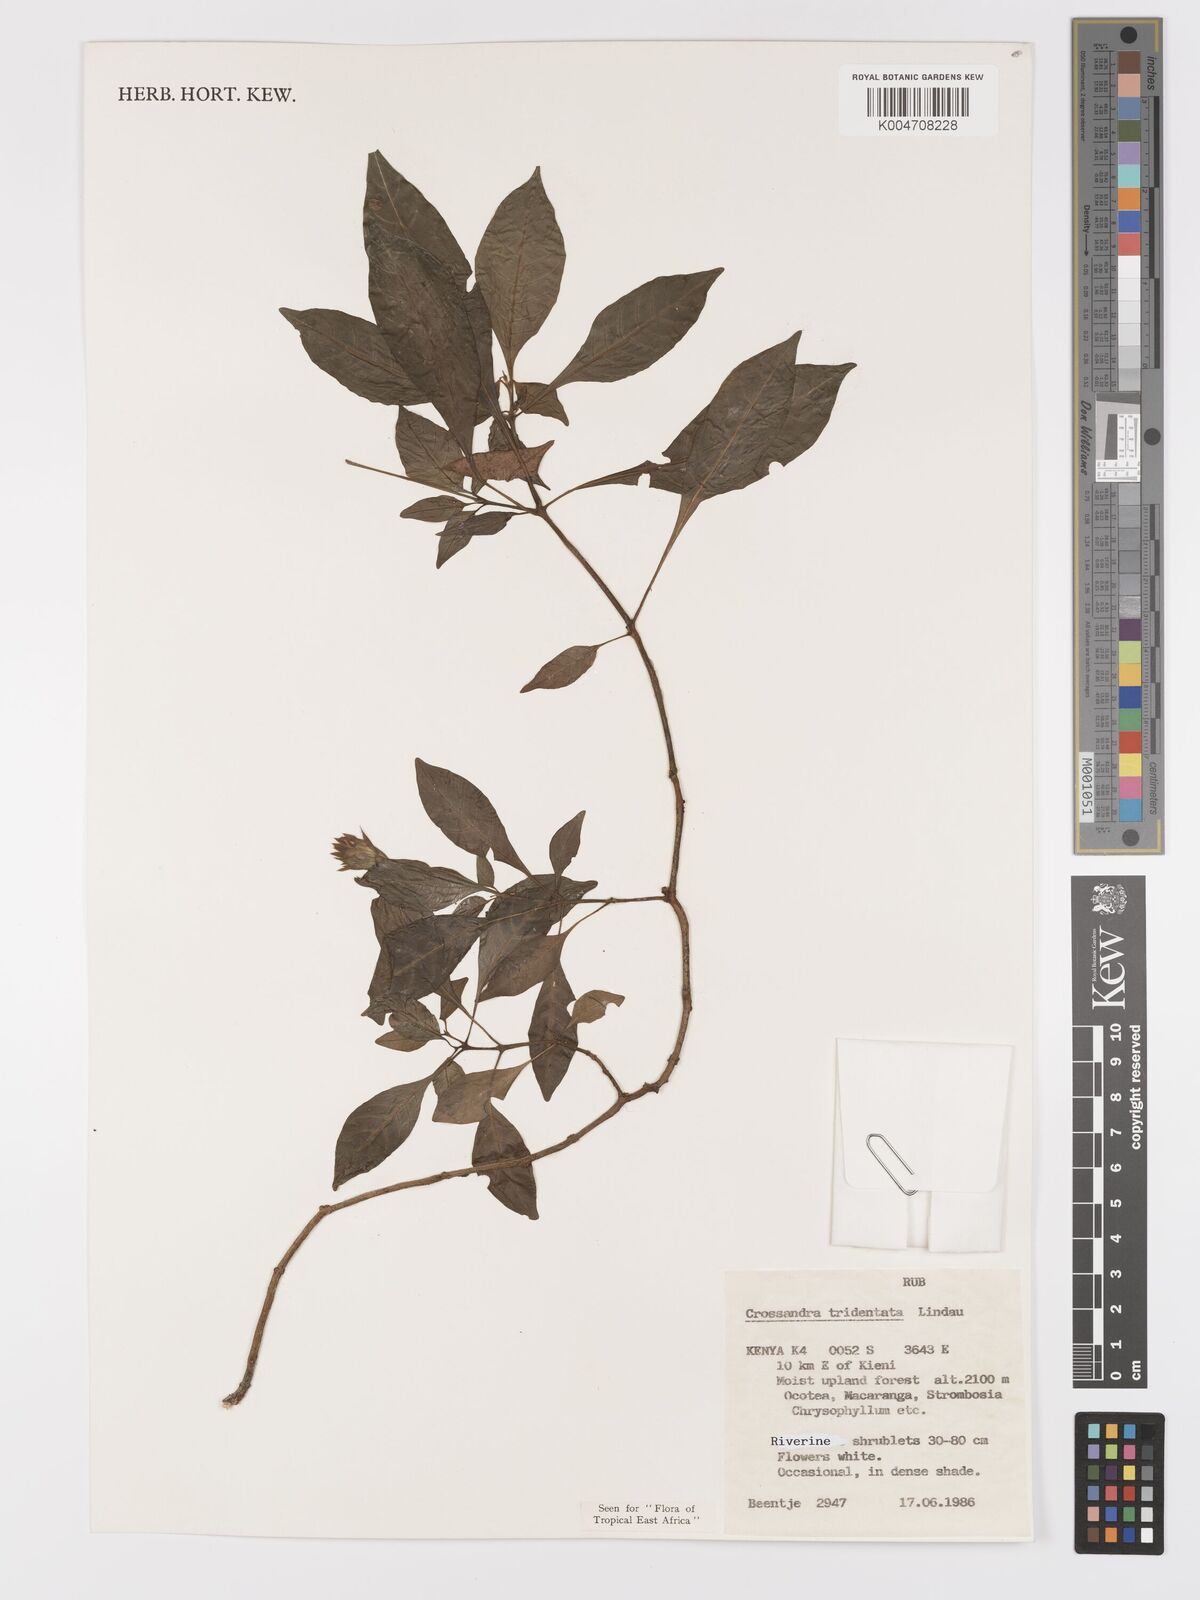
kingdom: Plantae
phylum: Tracheophyta
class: Magnoliopsida
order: Lamiales
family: Acanthaceae
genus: Crossandra
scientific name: Crossandra tridentata
